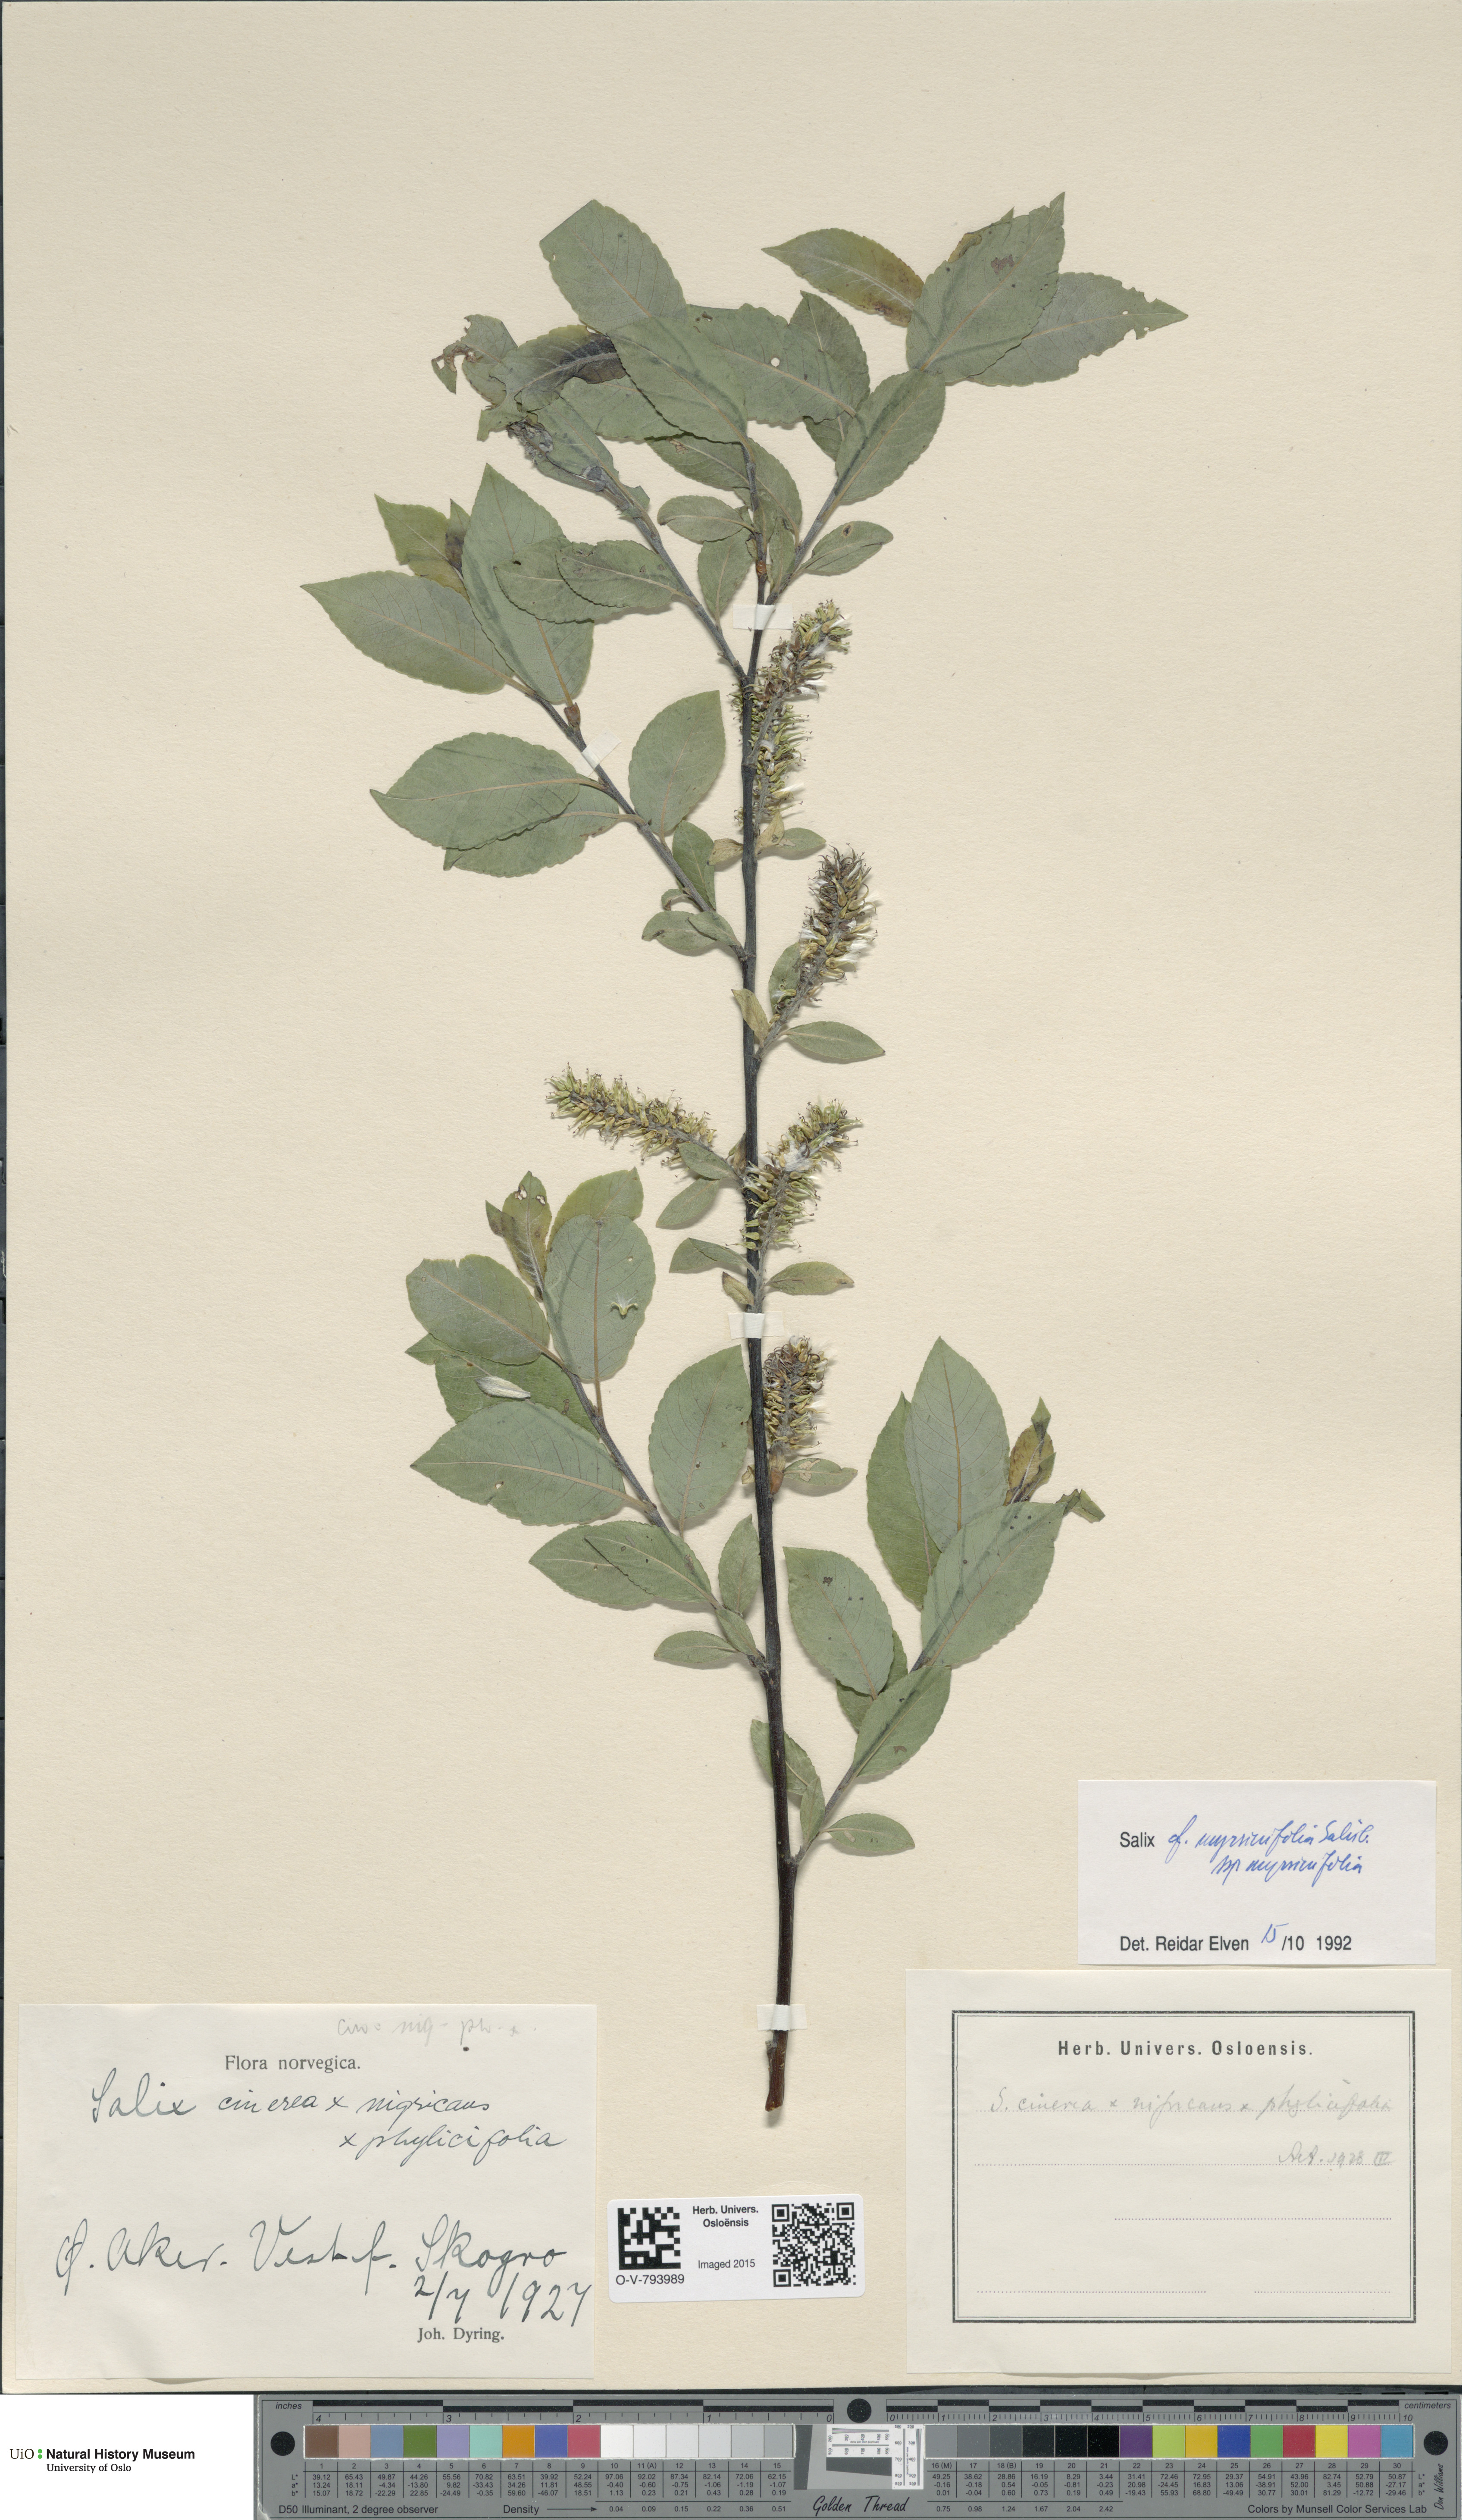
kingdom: Plantae
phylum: Tracheophyta
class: Magnoliopsida
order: Malpighiales
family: Salicaceae
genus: Salix
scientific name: Salix myrsinifolia
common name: Dark-leaved willow
